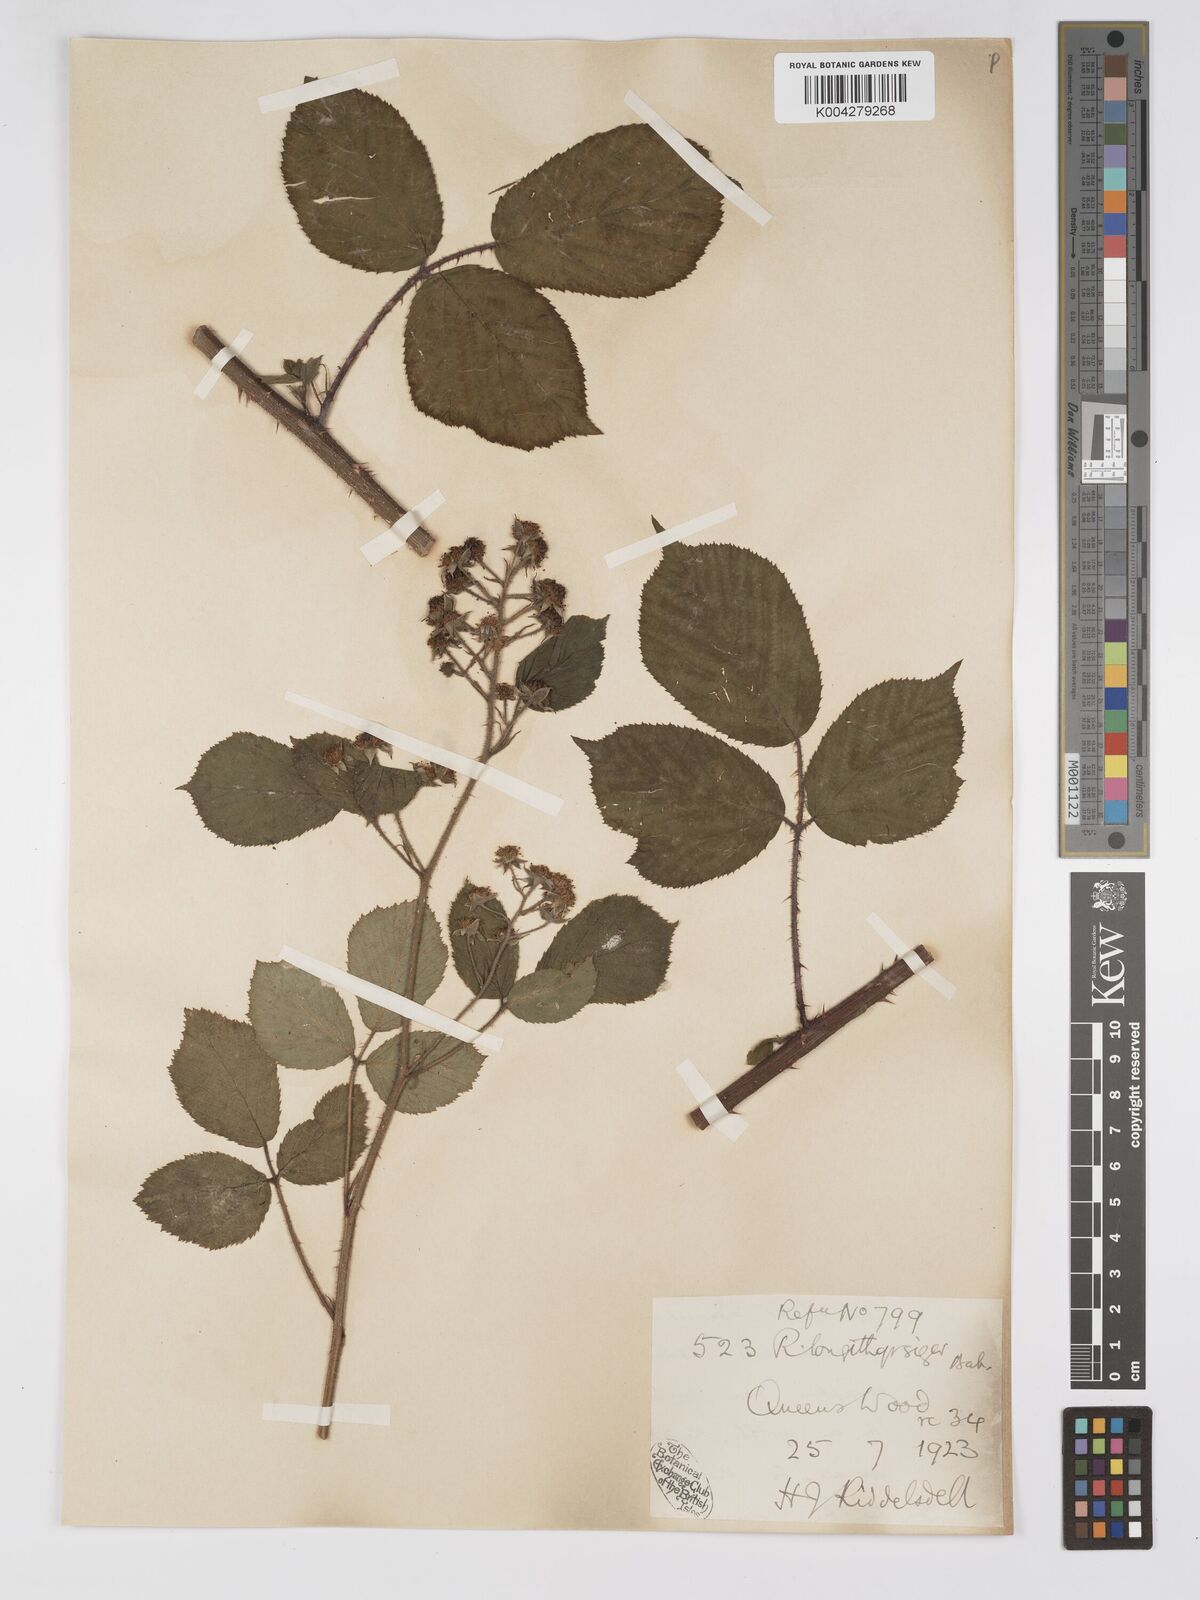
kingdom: Plantae
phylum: Tracheophyta
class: Magnoliopsida
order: Rosales
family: Rosaceae
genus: Rubus
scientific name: Rubus longithyrsiger
